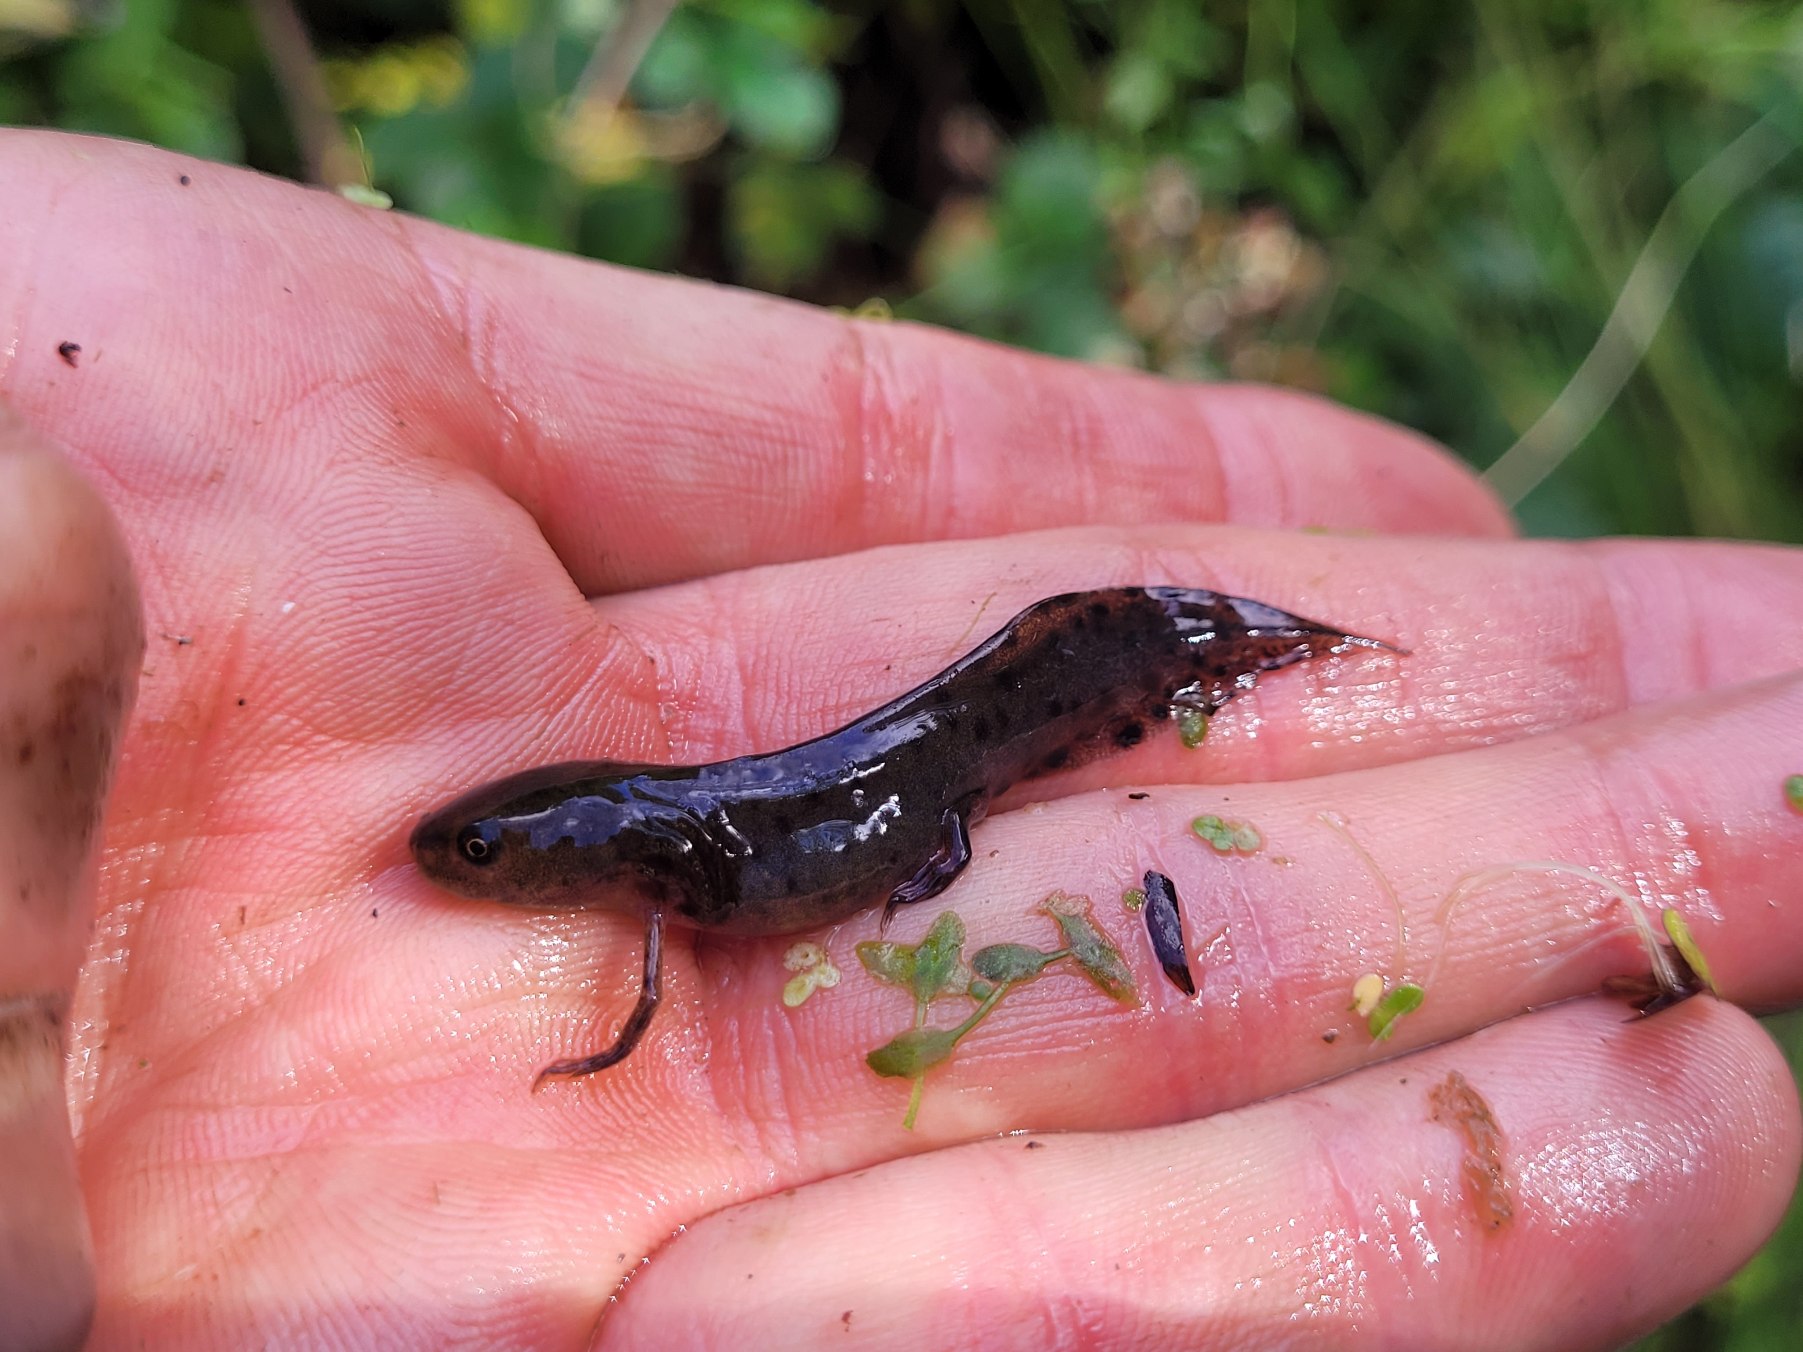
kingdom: Animalia
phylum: Chordata
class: Amphibia
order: Caudata
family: Salamandridae
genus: Triturus
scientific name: Triturus cristatus
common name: Stor vandsalamander
